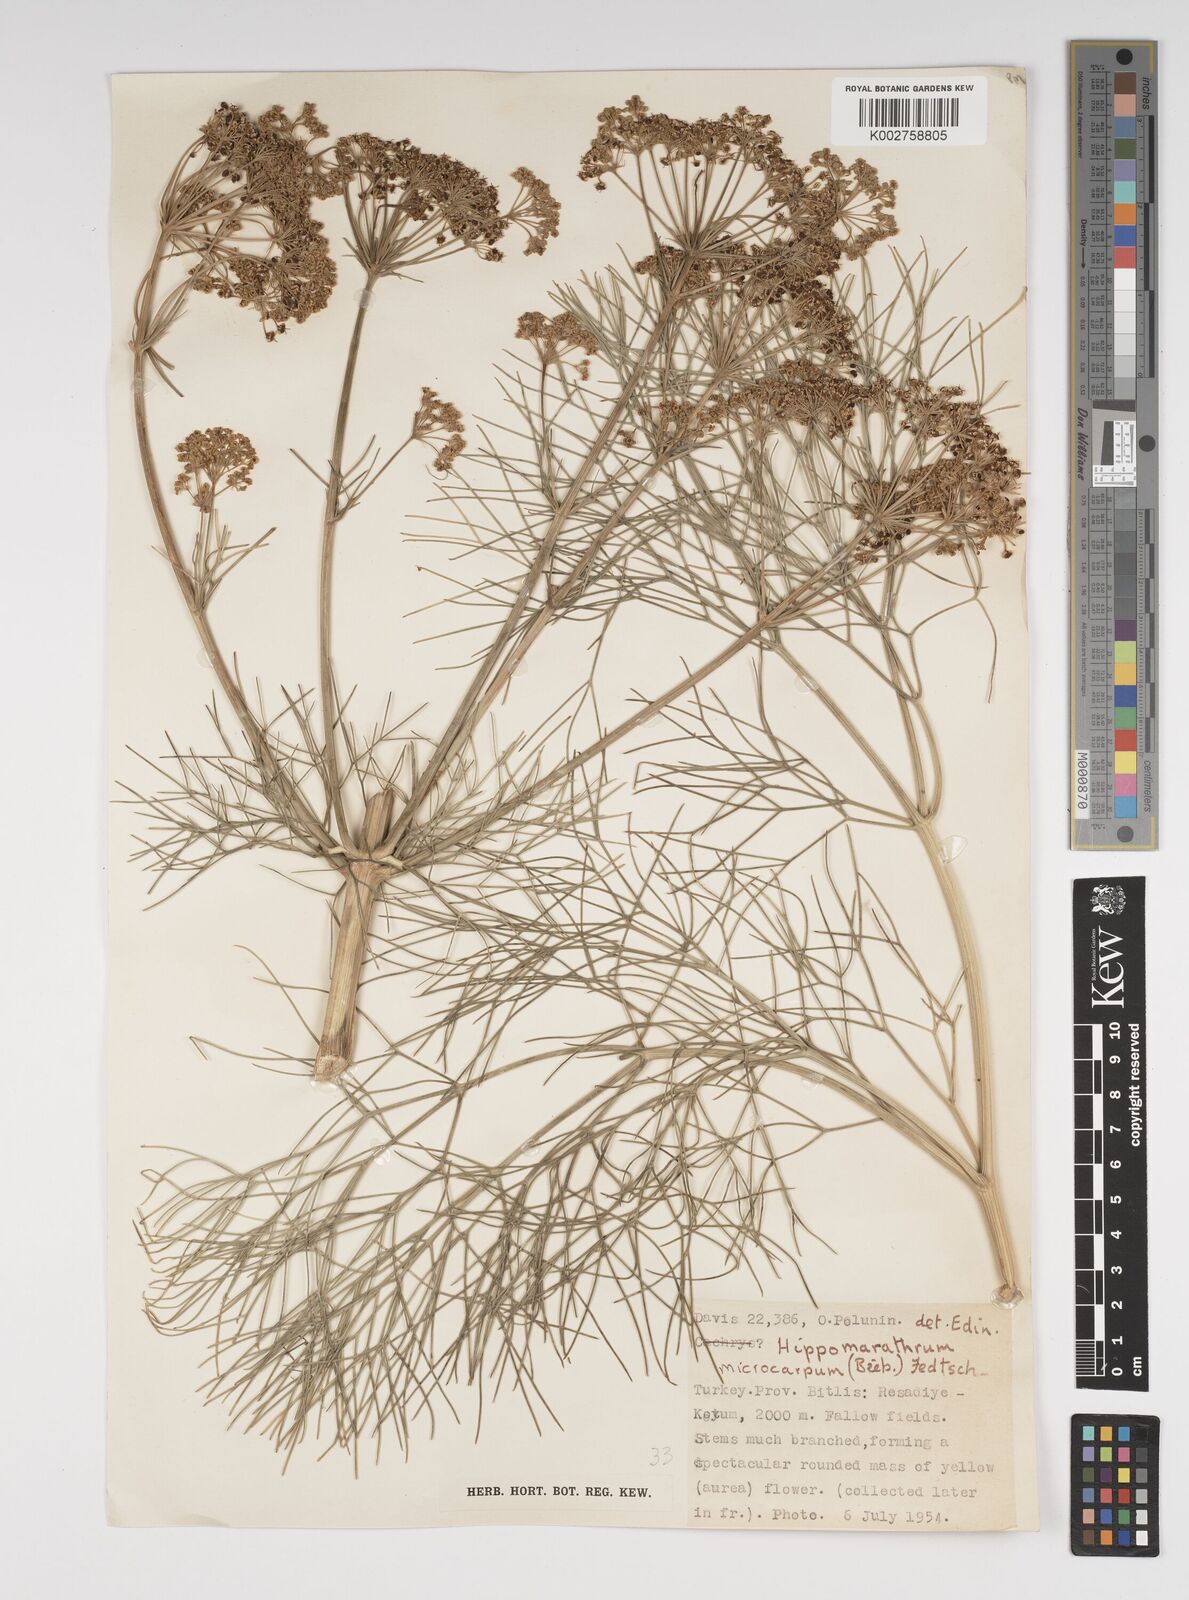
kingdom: Plantae
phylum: Tracheophyta
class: Magnoliopsida
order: Apiales
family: Apiaceae
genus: Bilacunaria
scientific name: Bilacunaria microcarpa
